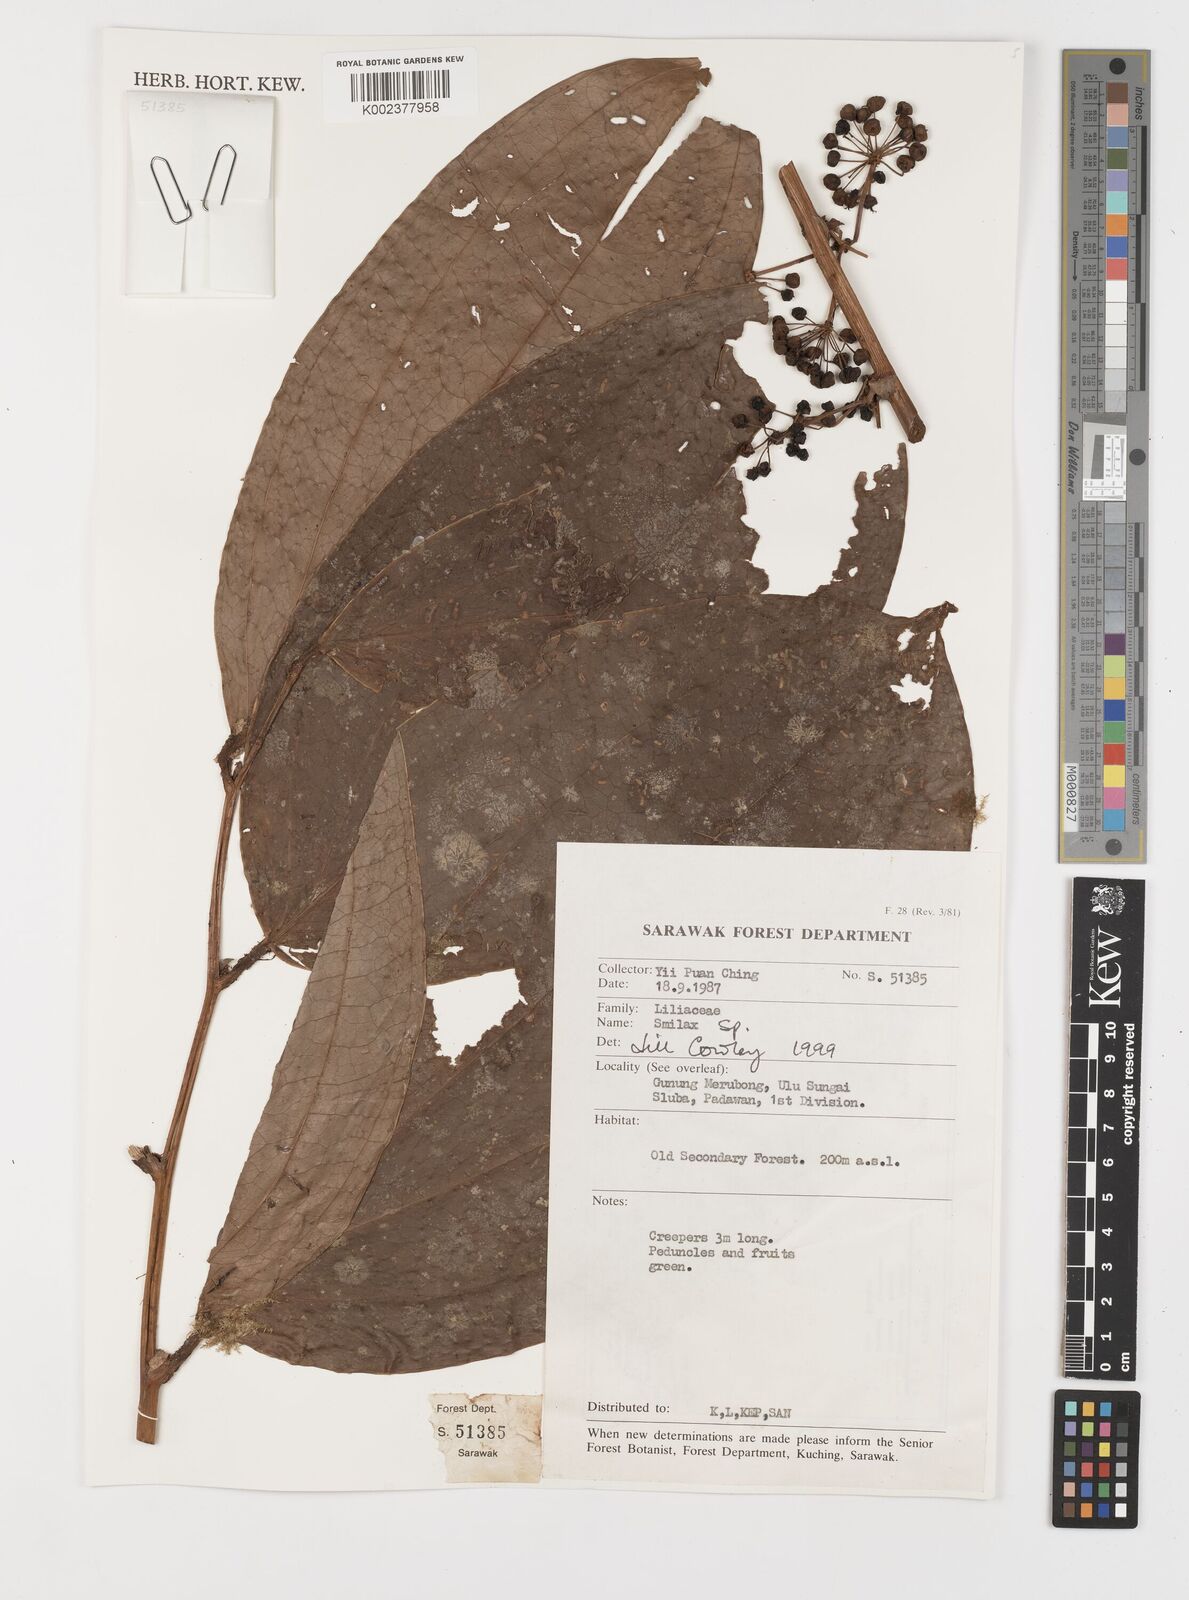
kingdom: Plantae
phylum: Tracheophyta
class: Liliopsida
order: Liliales
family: Smilacaceae
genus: Smilax
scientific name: Smilax
